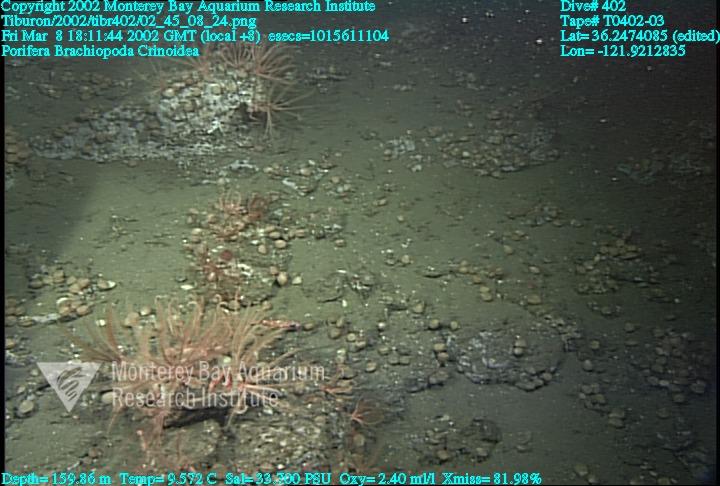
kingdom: Animalia
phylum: Porifera
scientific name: Porifera
